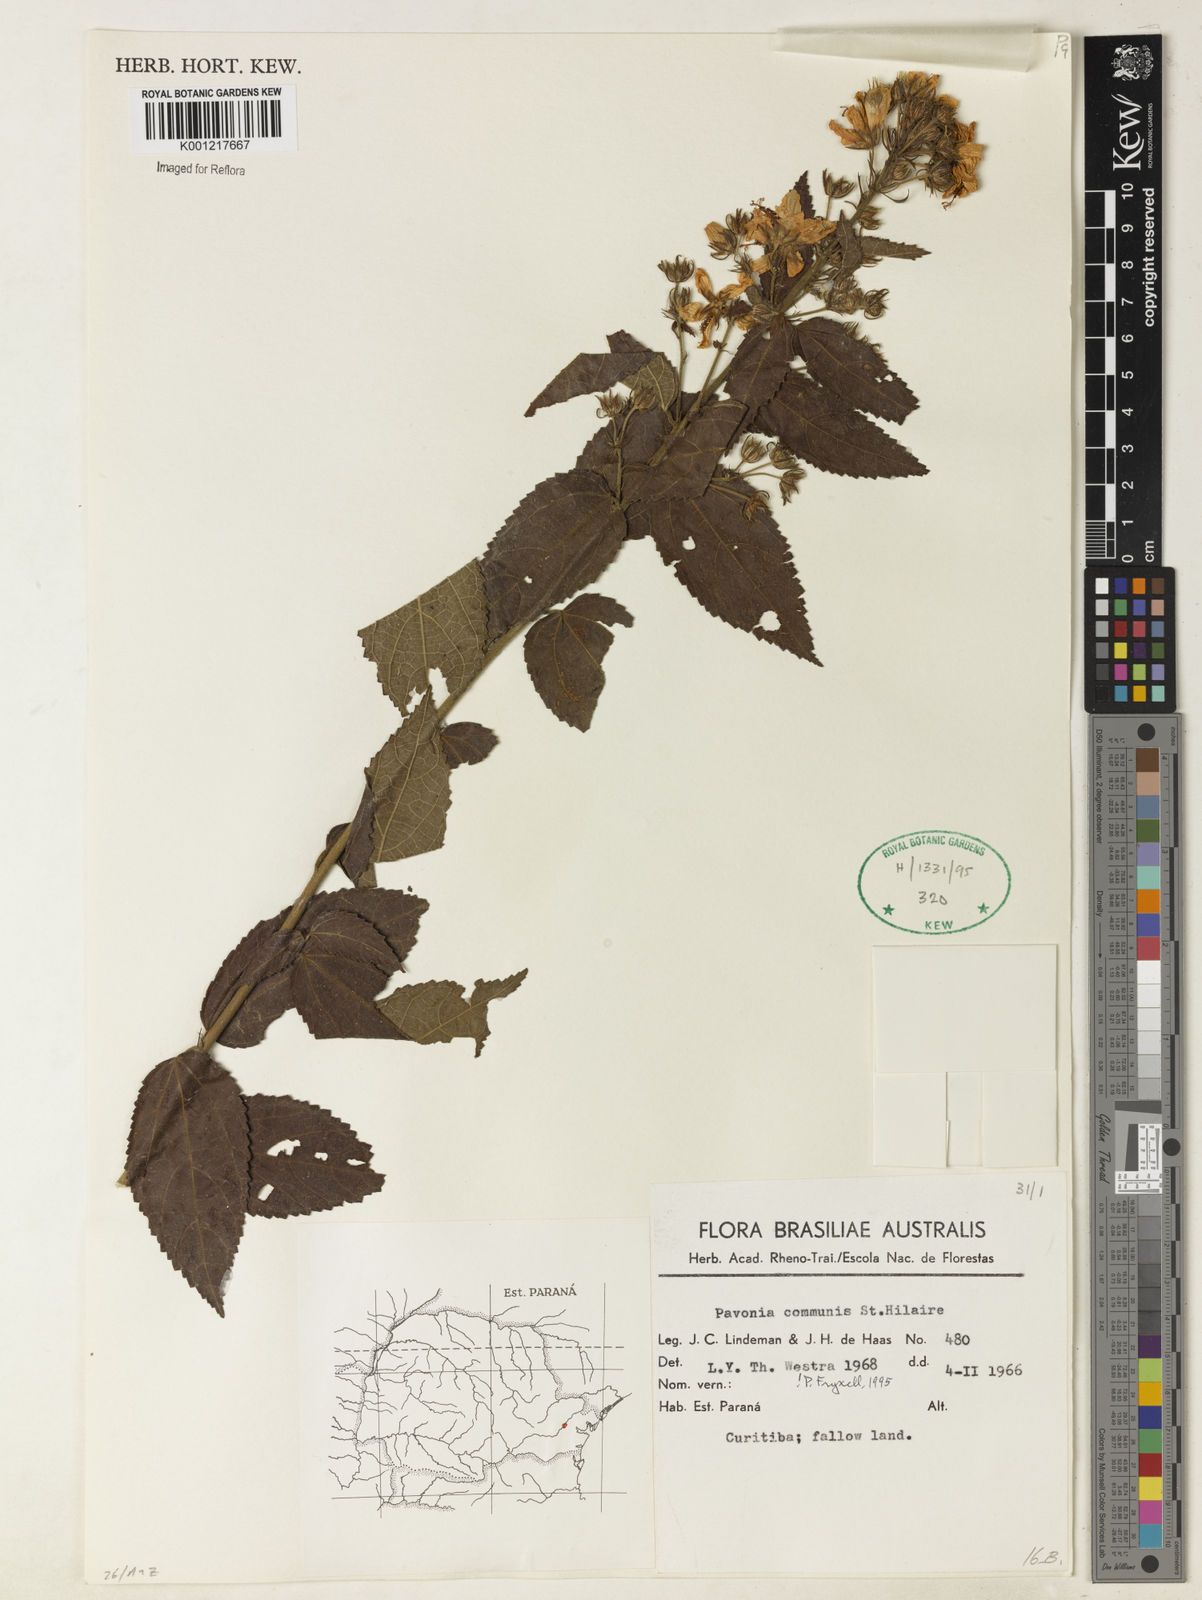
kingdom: Plantae
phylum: Tracheophyta
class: Magnoliopsida
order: Malvales
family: Malvaceae
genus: Pavonia
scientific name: Pavonia communis
